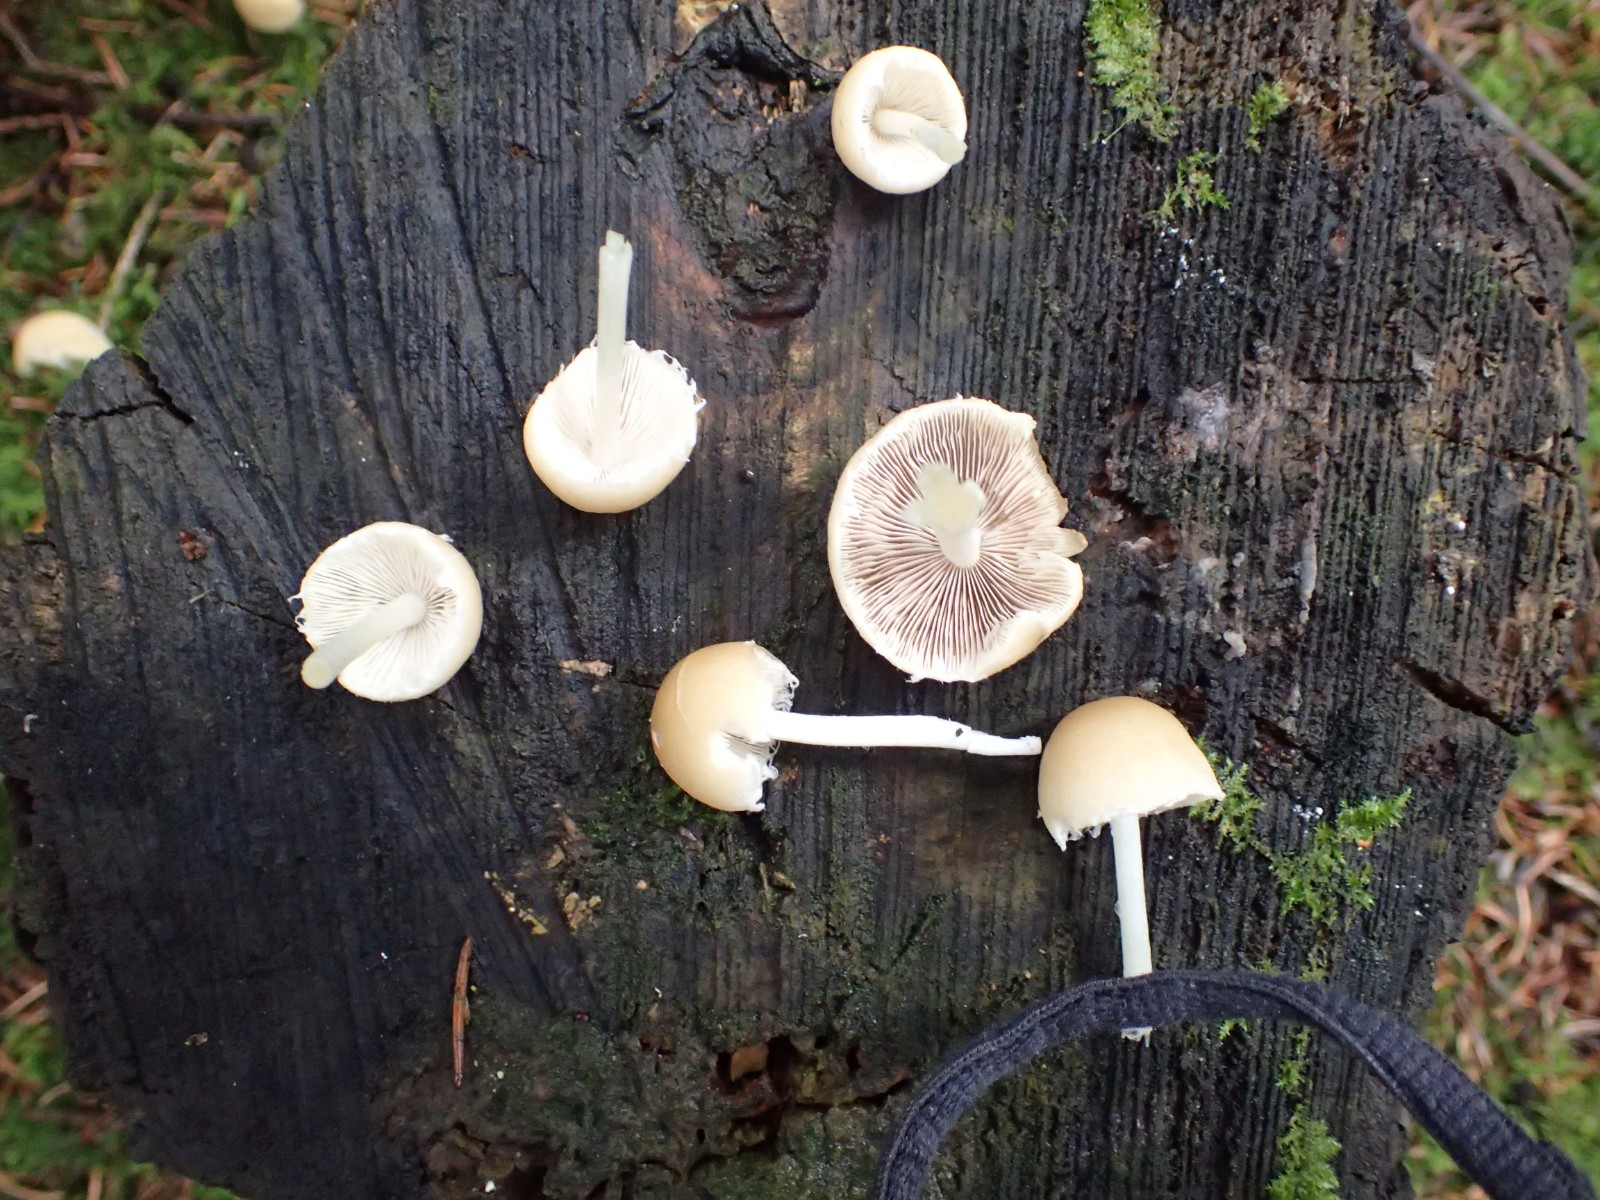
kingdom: Fungi
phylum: Basidiomycota
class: Agaricomycetes
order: Agaricales
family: Psathyrellaceae
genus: Candolleomyces
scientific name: Candolleomyces candolleanus
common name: Candolles mørkhat
